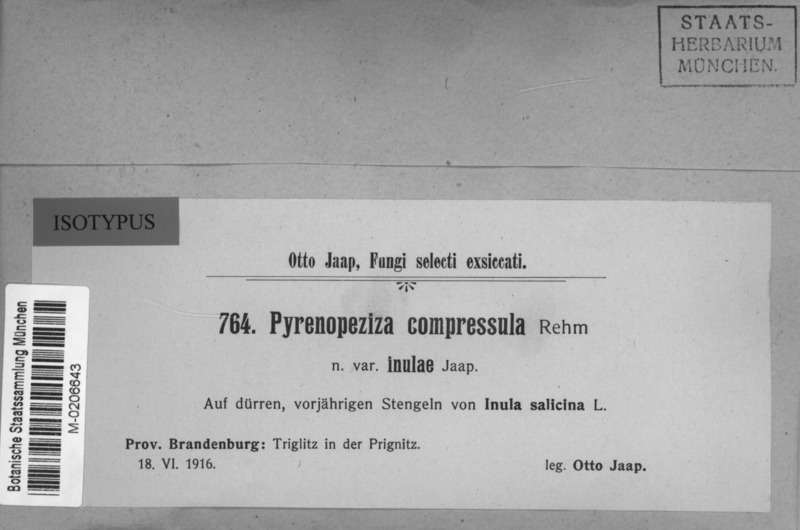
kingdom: Fungi
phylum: Ascomycota
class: Leotiomycetes
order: Helotiales
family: Ploettnerulaceae
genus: Pyrenopeziza
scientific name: Pyrenopeziza compressula
